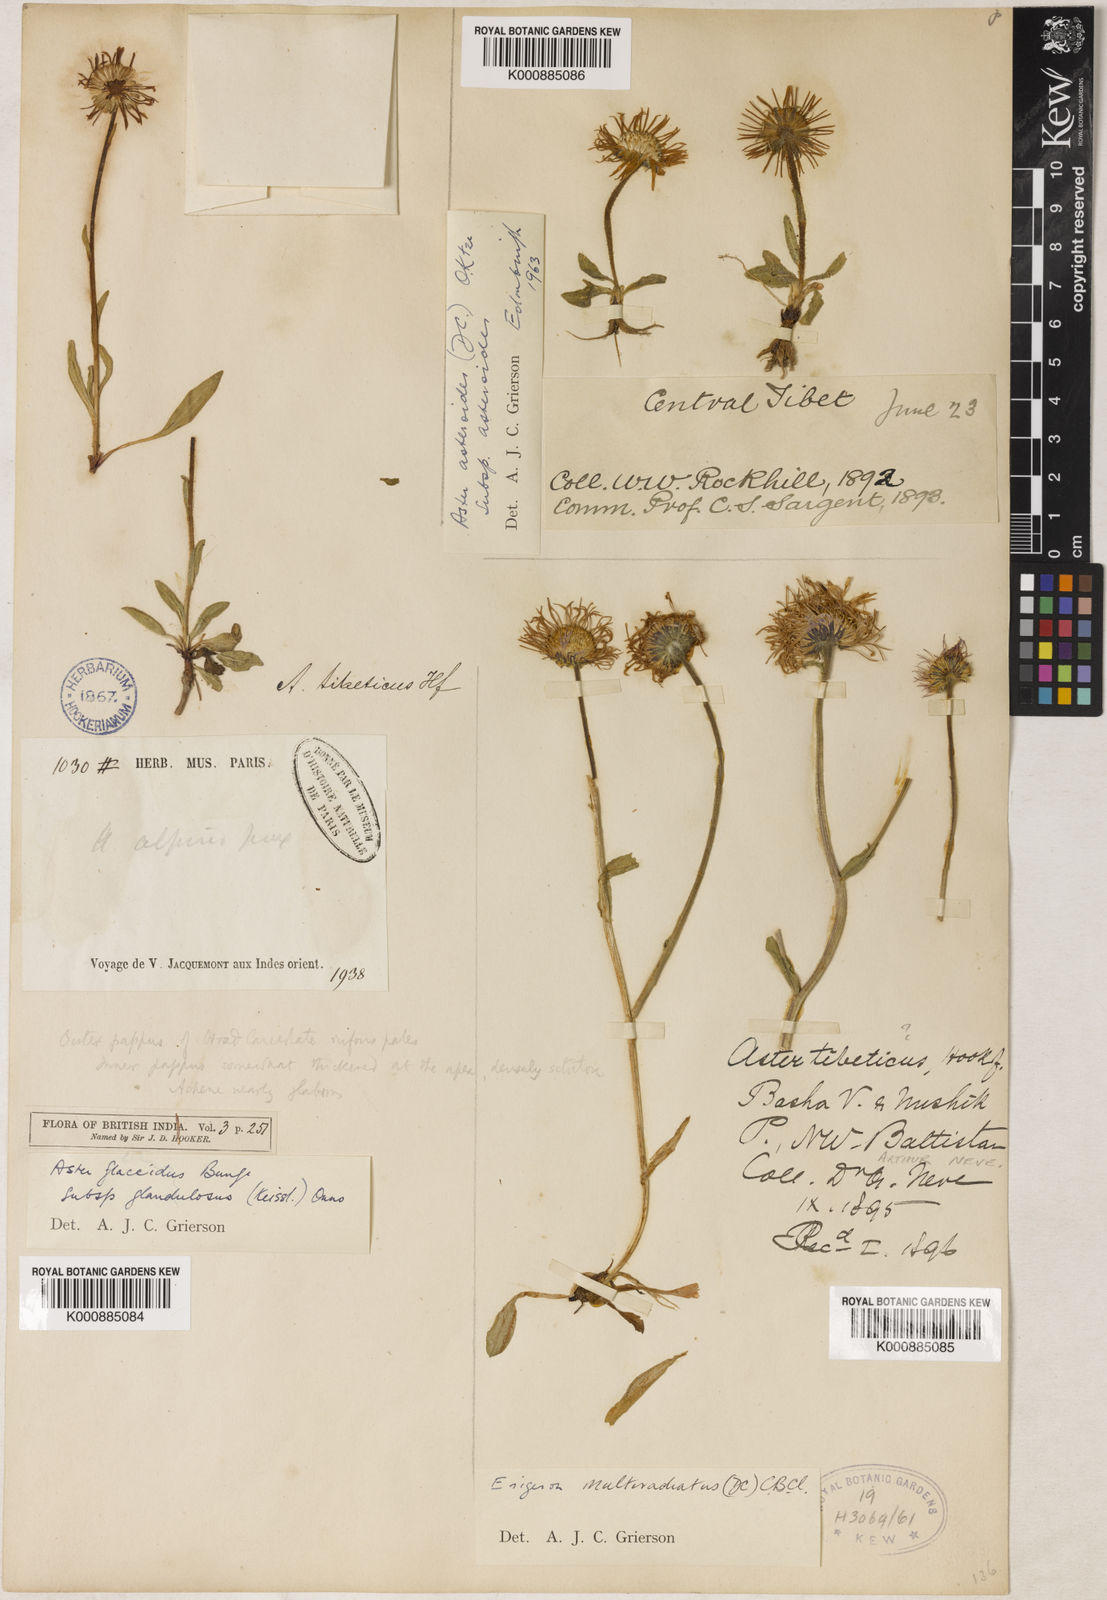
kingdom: Plantae
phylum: Tracheophyta
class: Magnoliopsida
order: Asterales
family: Asteraceae
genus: Erigeron
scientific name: Erigeron
